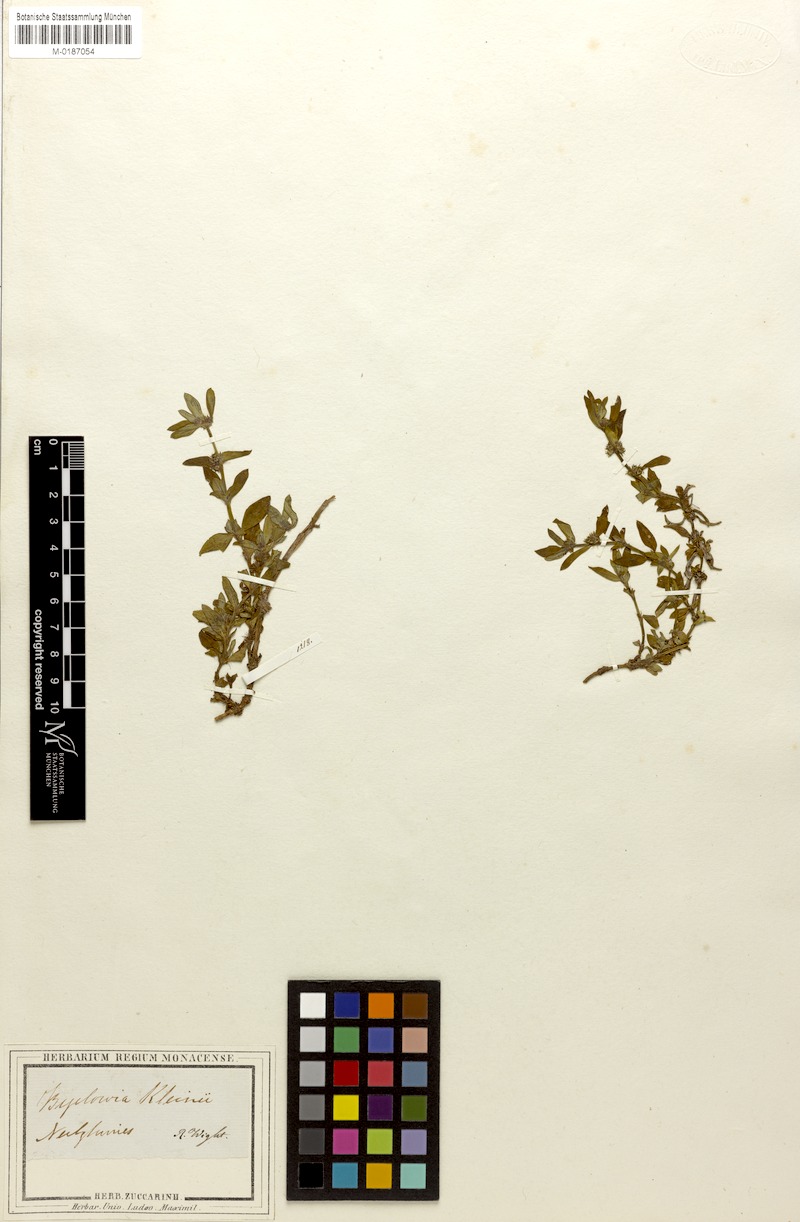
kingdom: Plantae
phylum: Tracheophyta
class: Magnoliopsida
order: Gentianales
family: Rubiaceae
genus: Spermacoce
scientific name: Spermacoce pusilla
